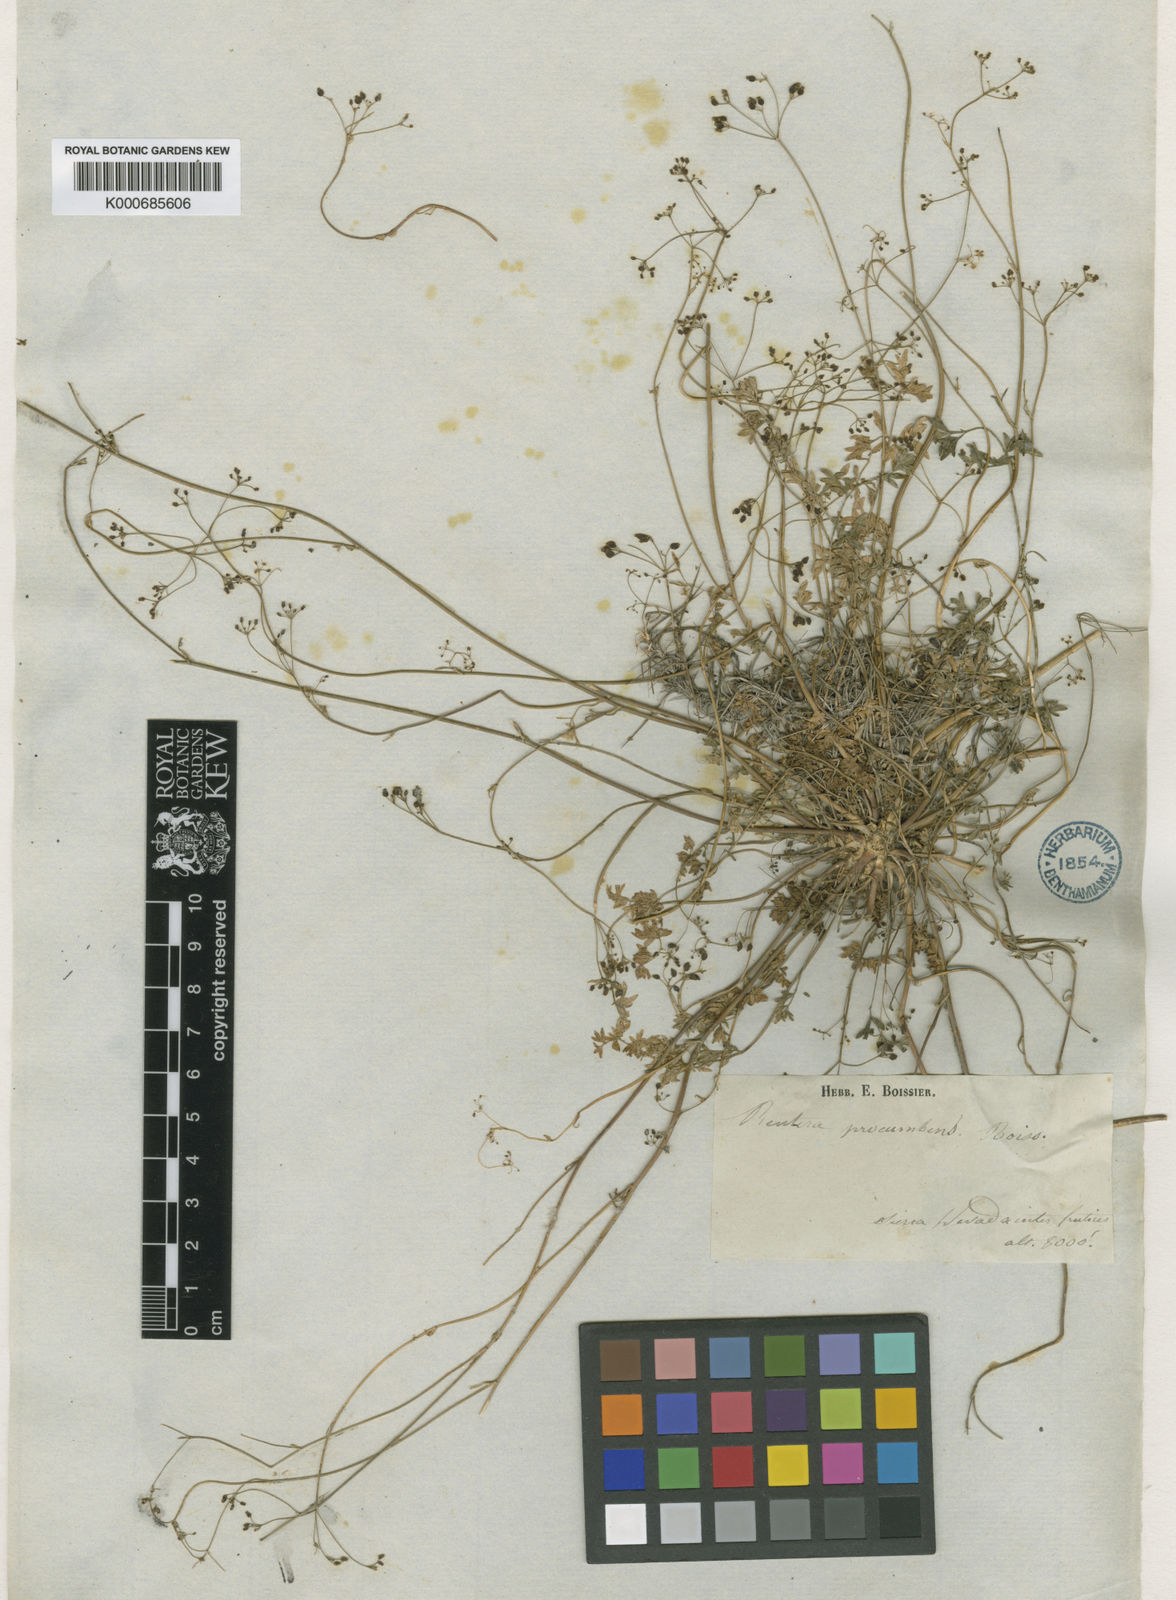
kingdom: Plantae
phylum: Tracheophyta
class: Magnoliopsida
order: Apiales
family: Apiaceae
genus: Pimpinella
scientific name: Pimpinella
